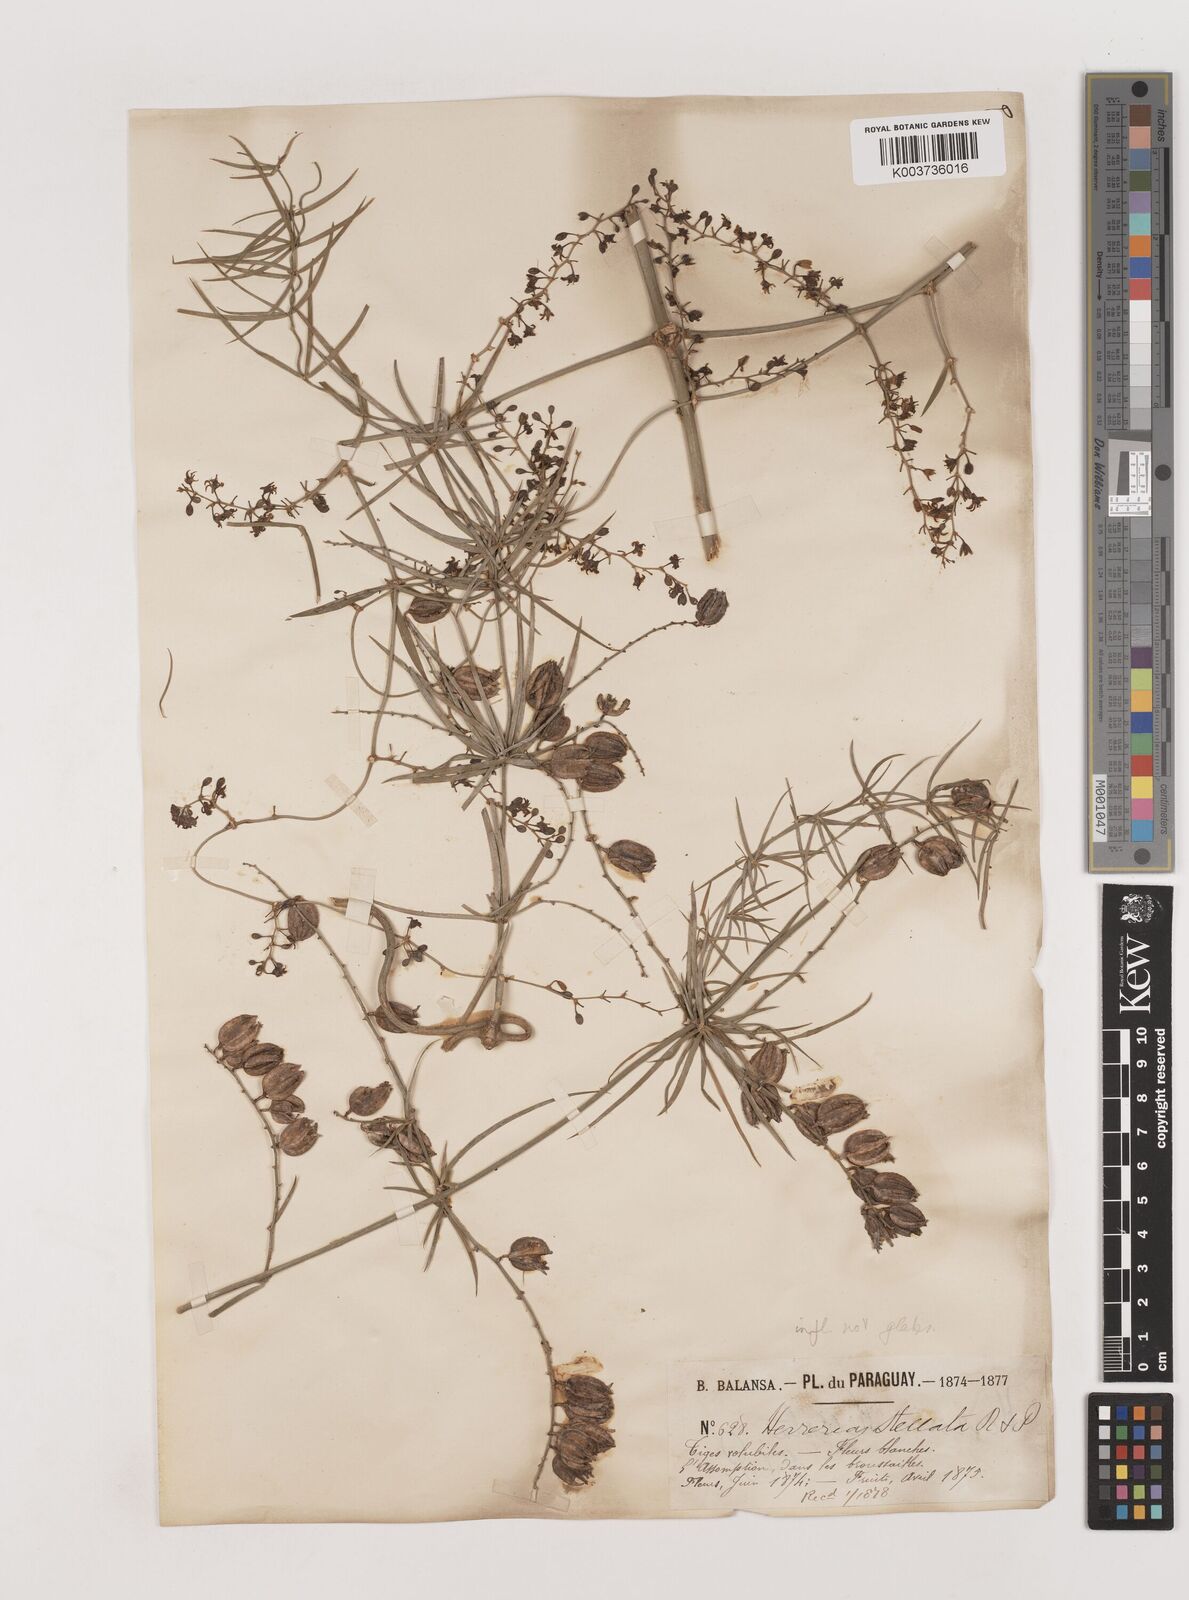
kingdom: Plantae
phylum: Tracheophyta
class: Liliopsida
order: Asparagales
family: Asparagaceae
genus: Herreria
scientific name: Herreria
